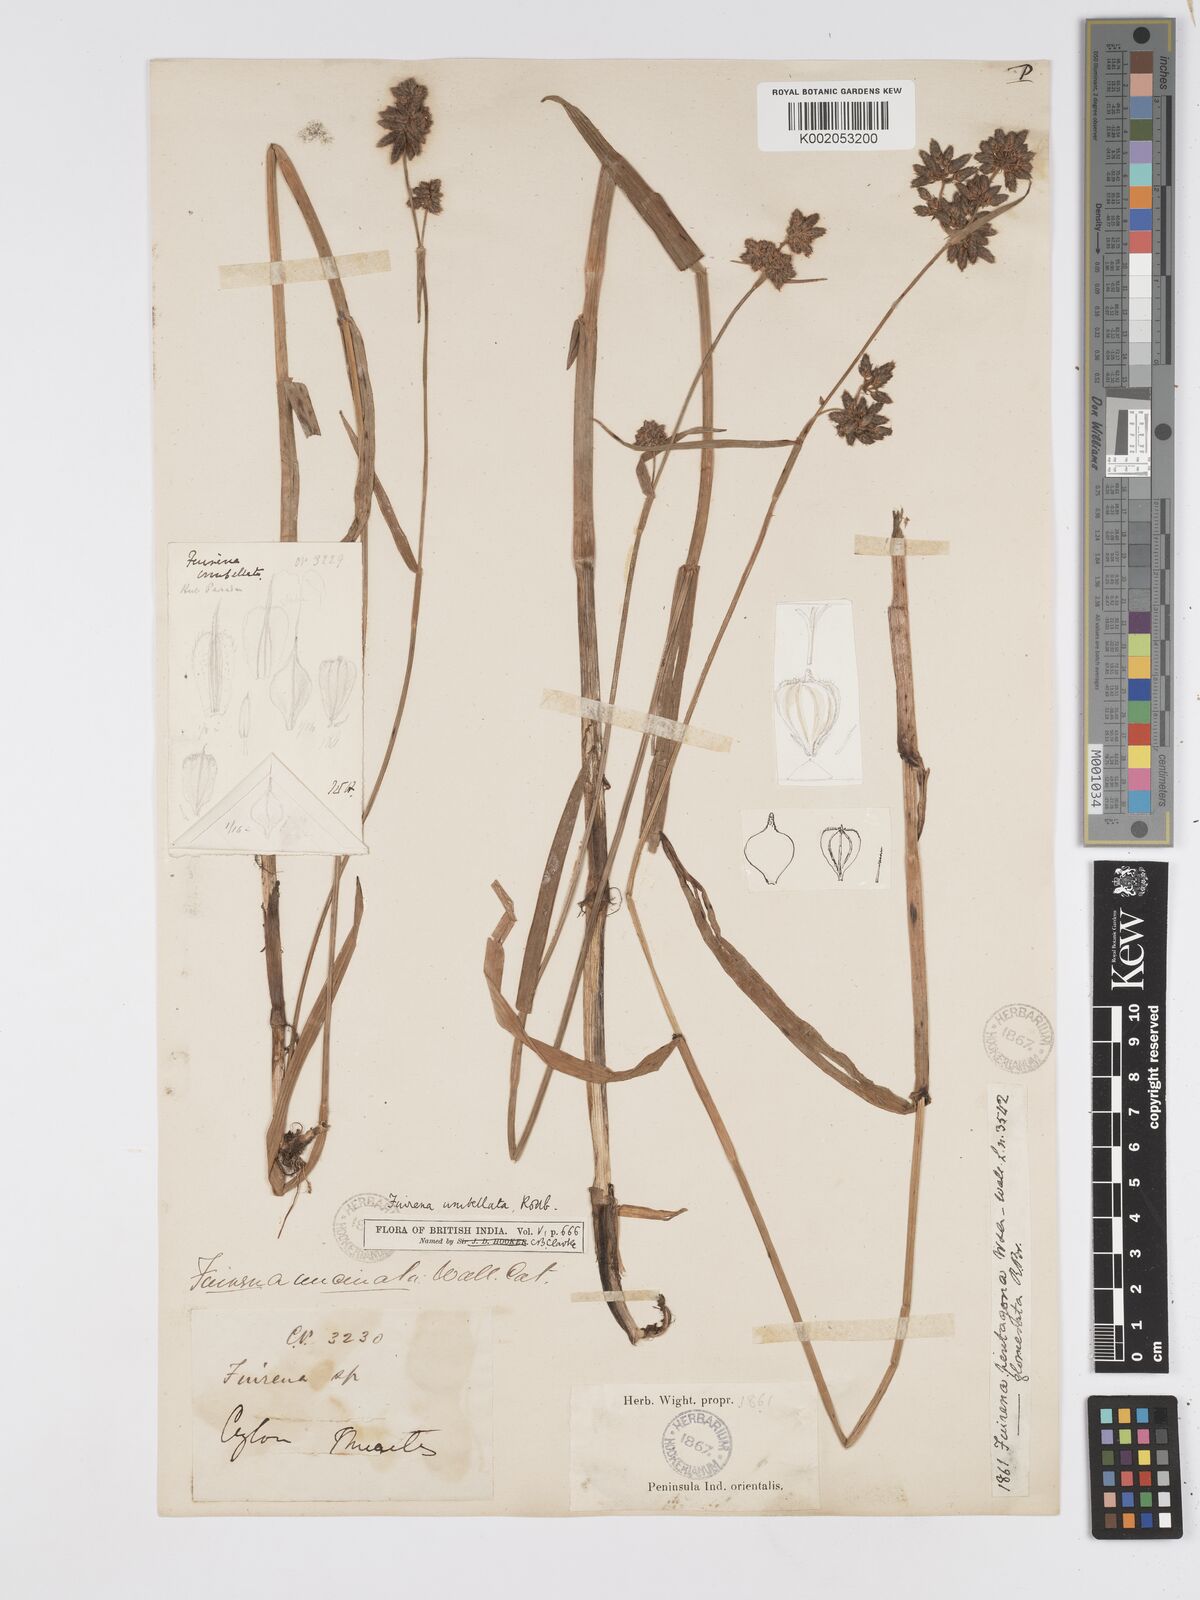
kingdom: Plantae
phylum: Tracheophyta
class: Liliopsida
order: Poales
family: Cyperaceae
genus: Fuirena
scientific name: Fuirena umbellata
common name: Yefen
